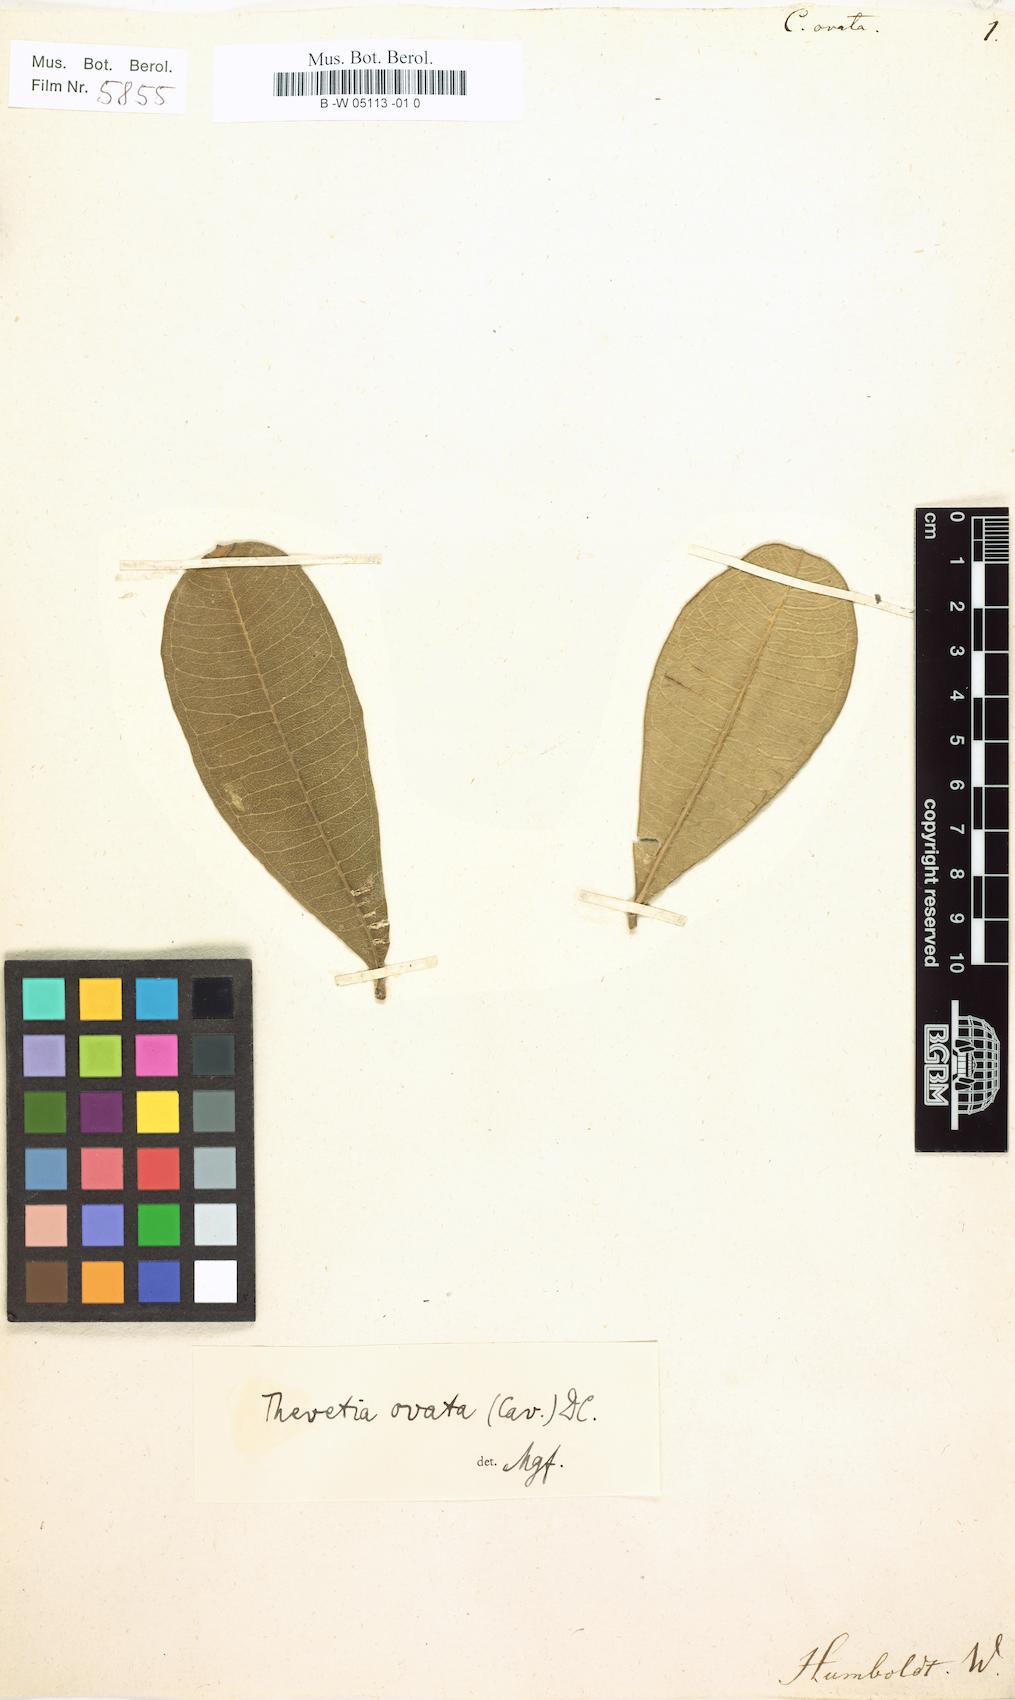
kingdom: Plantae
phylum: Tracheophyta
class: Magnoliopsida
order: Gentianales
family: Apocynaceae
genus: Cascabela
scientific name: Cascabela ovata
